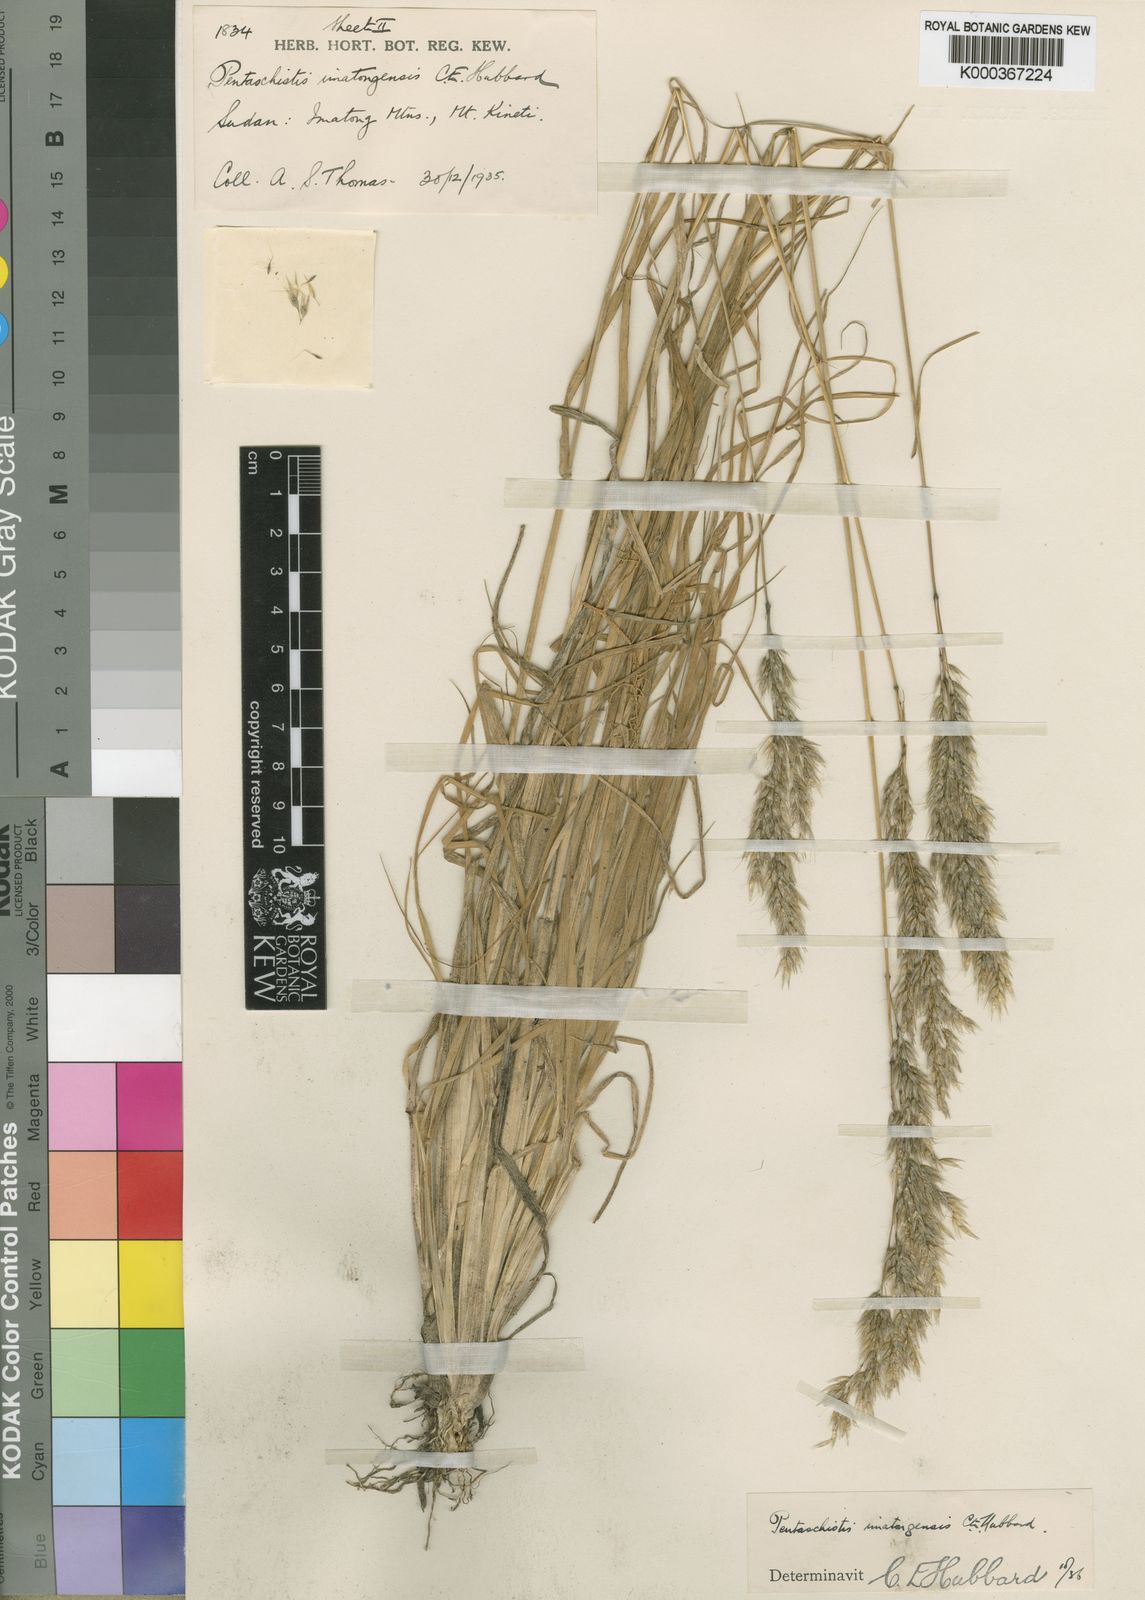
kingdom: Plantae
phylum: Tracheophyta
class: Liliopsida
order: Poales
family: Poaceae
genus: Pentameris
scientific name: Pentameris pictigluma
